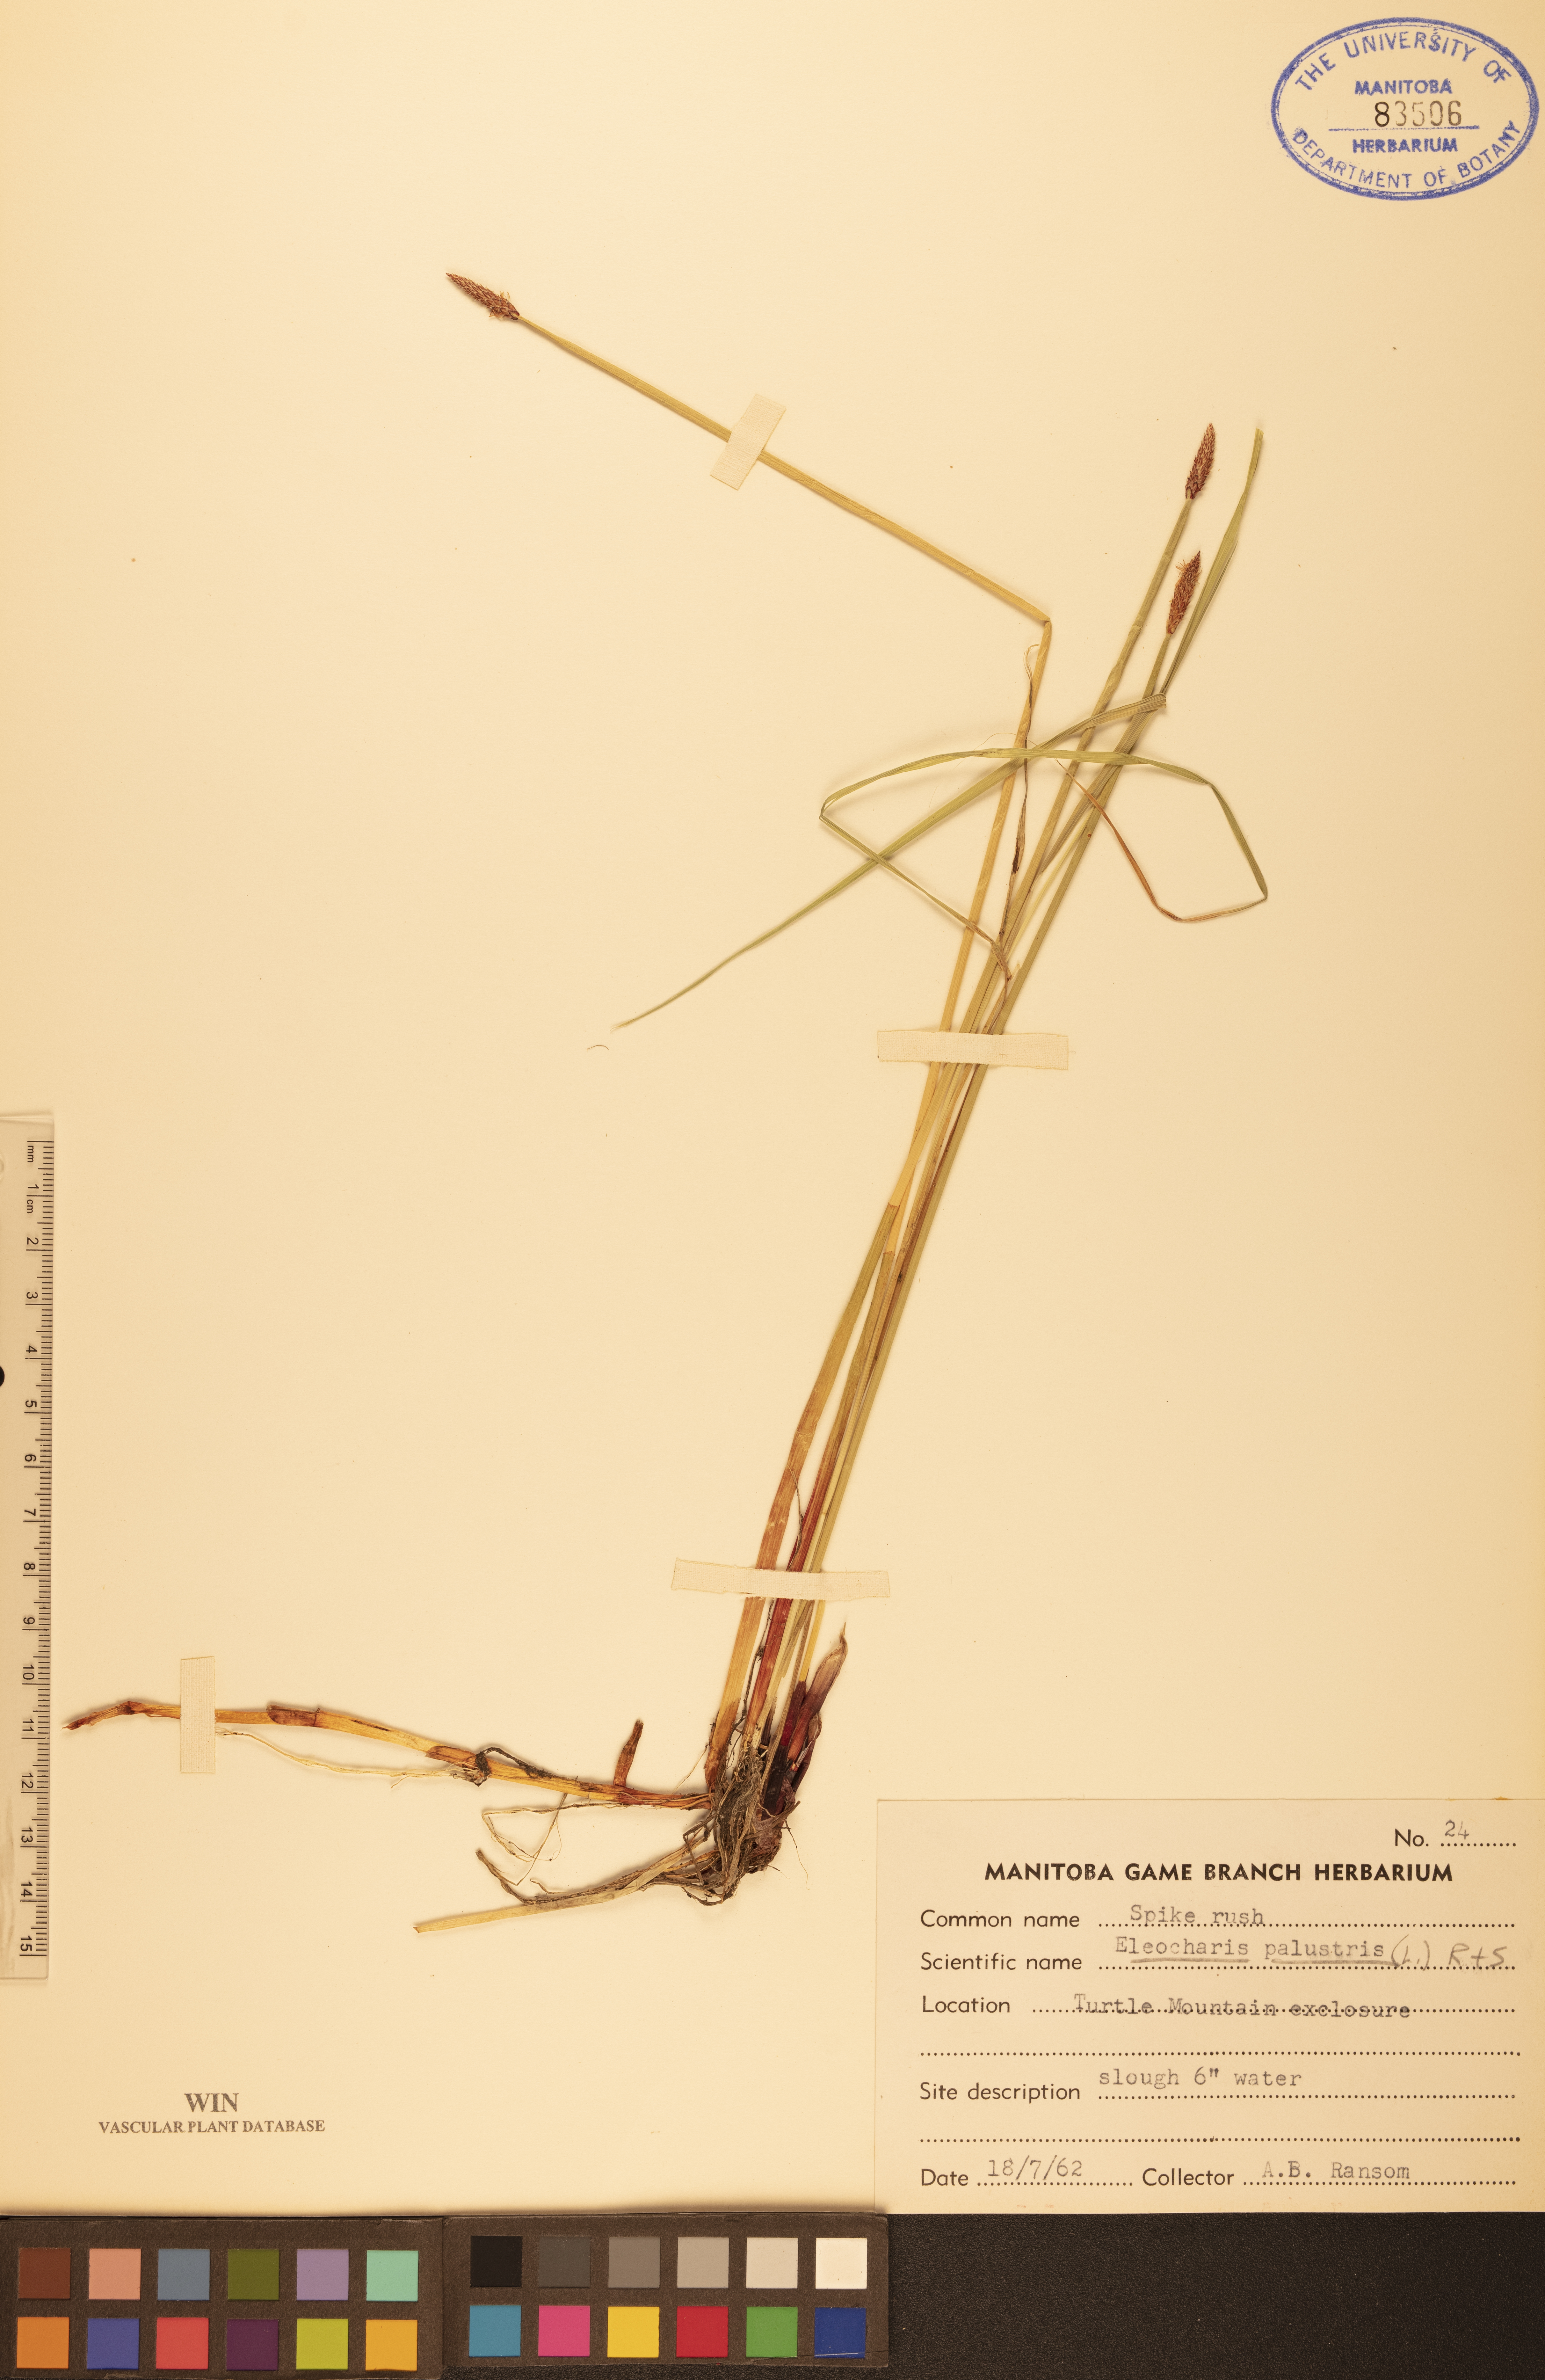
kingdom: Plantae
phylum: Tracheophyta
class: Liliopsida
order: Poales
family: Cyperaceae
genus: Eleocharis
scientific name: Eleocharis palustris
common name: Common spike-rush
